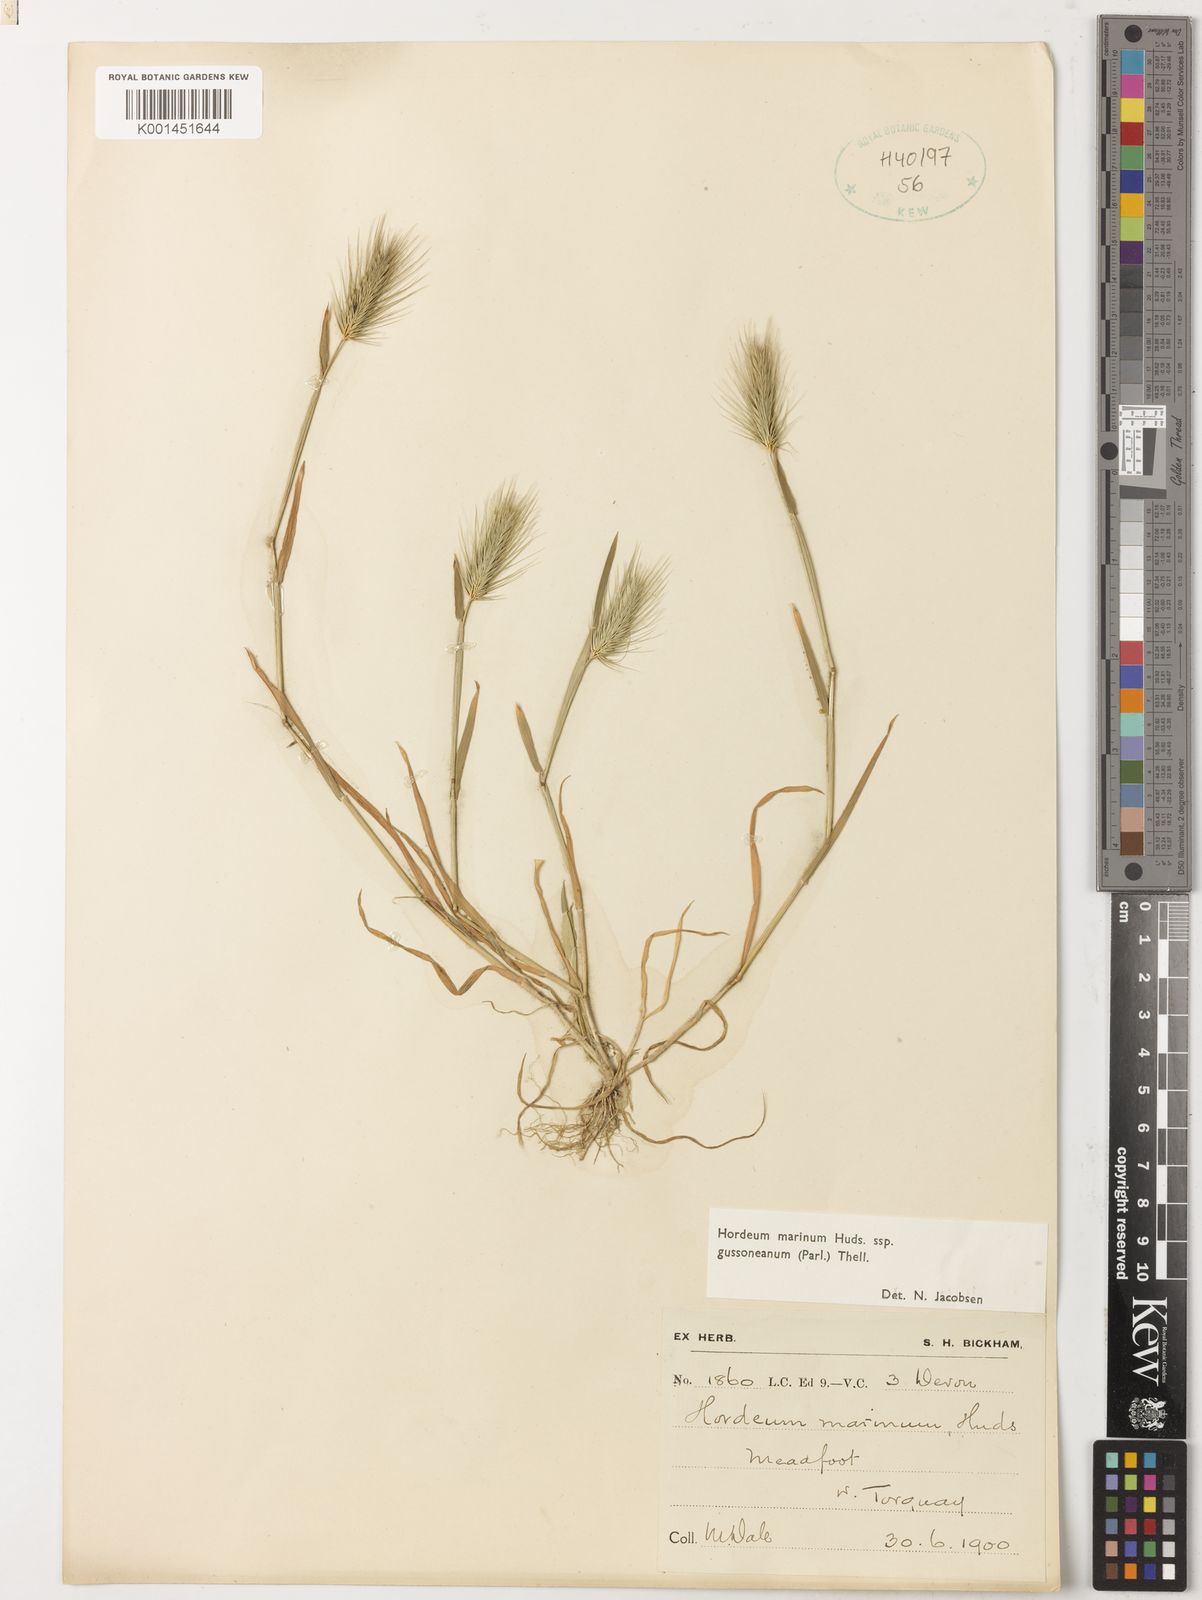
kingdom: Plantae
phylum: Tracheophyta
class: Liliopsida
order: Poales
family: Poaceae
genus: Hordeum
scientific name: Hordeum marinum
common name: Sea barley
